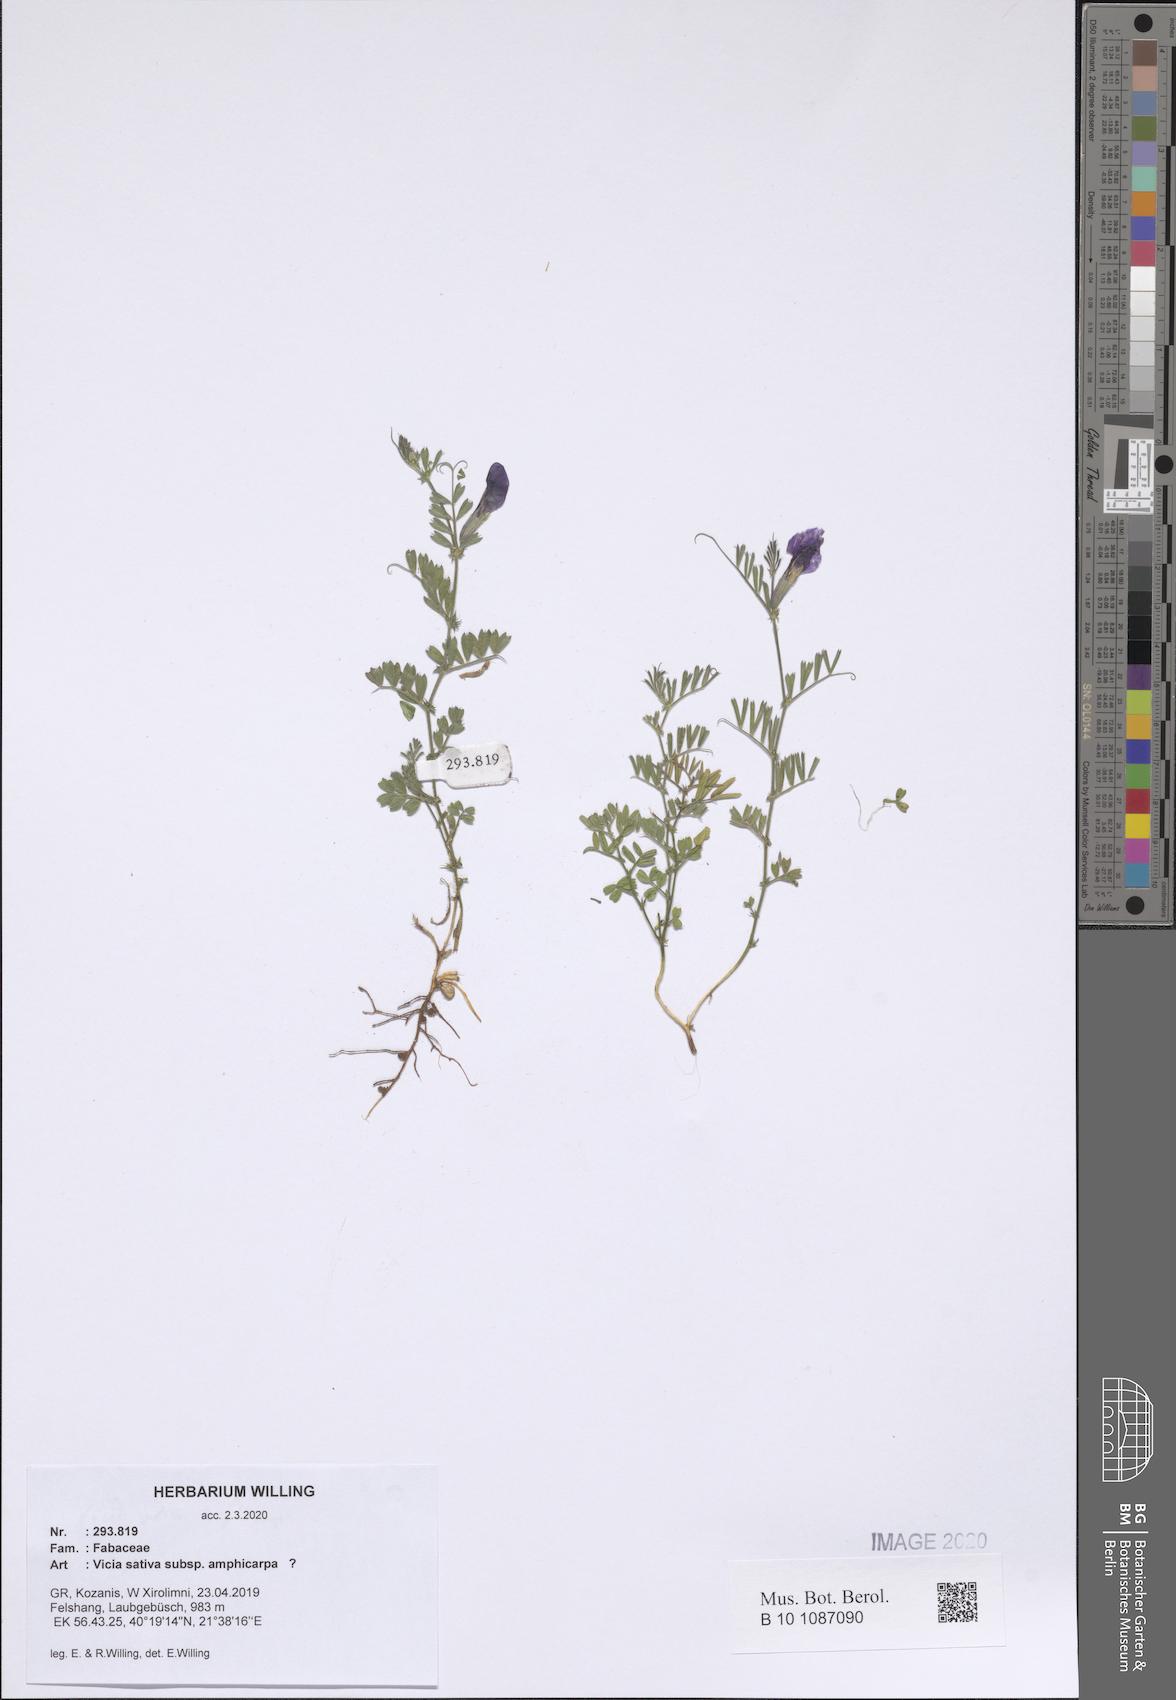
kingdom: Plantae
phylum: Tracheophyta
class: Magnoliopsida
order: Fabales
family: Fabaceae
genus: Vicia
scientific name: Vicia sativa
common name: Garden vetch
